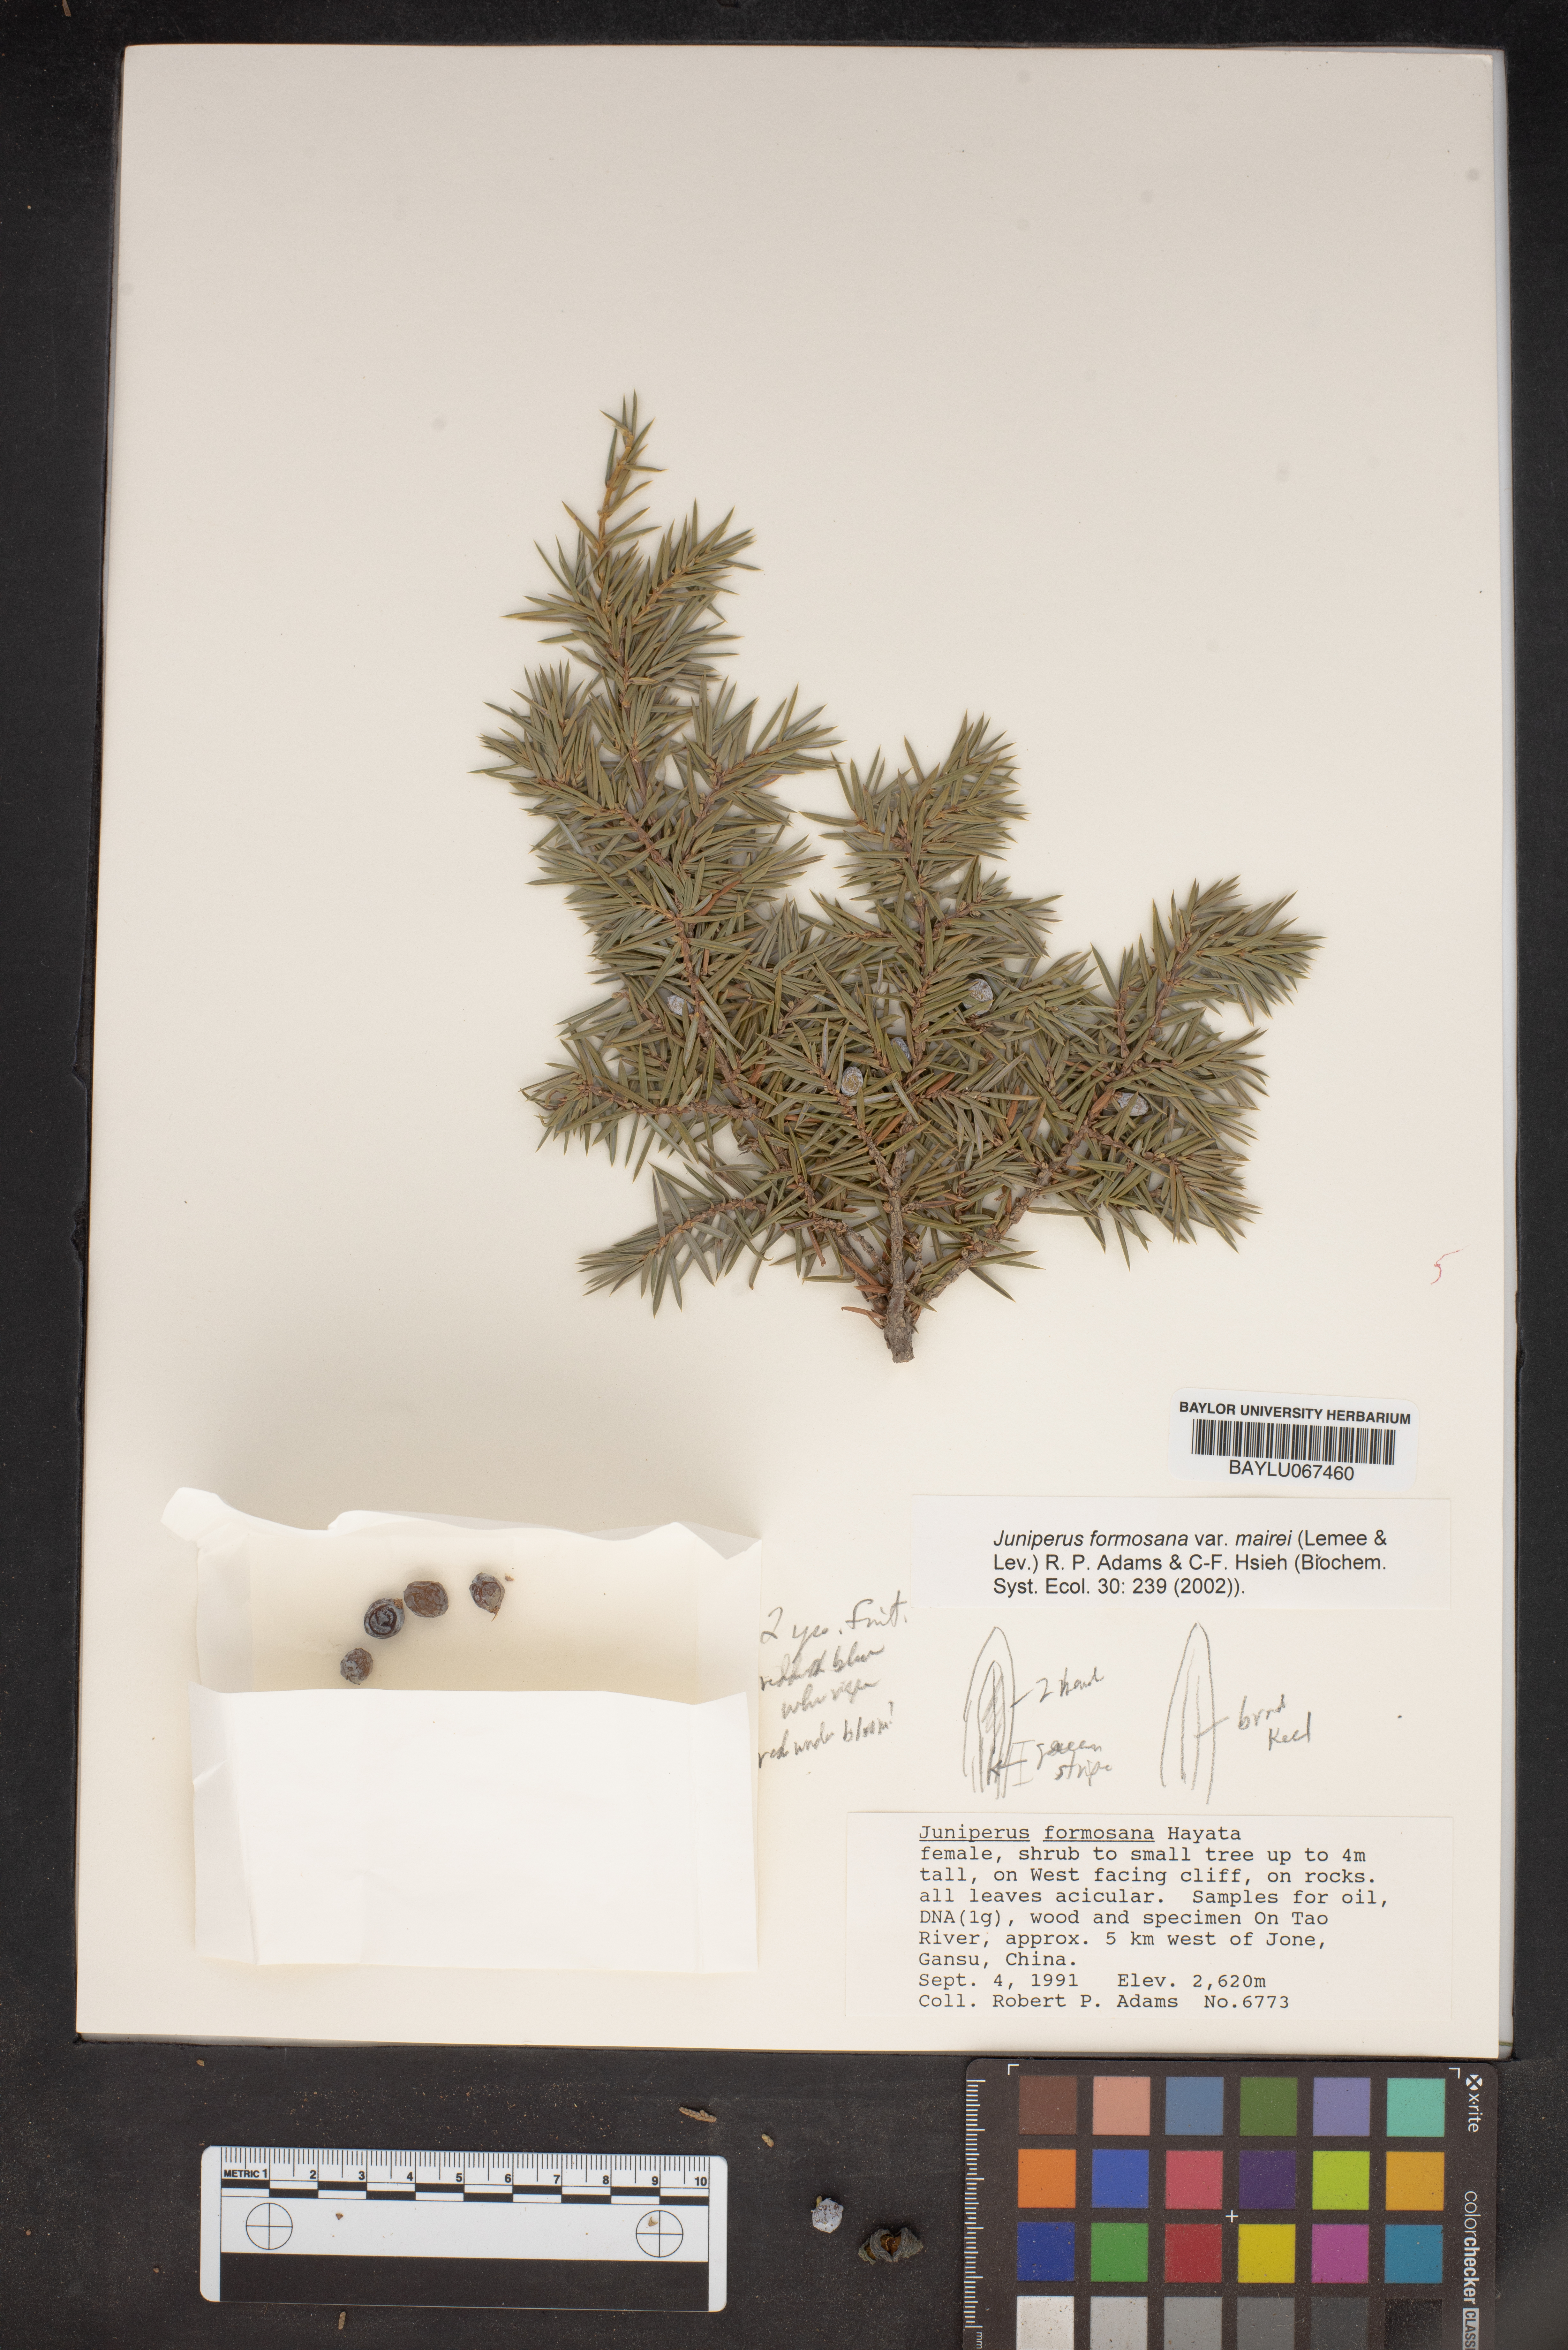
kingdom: Plantae
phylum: Tracheophyta
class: Pinopsida
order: Pinales
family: Cupressaceae
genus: Juniperus
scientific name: Juniperus formosana
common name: Formosan juniper
